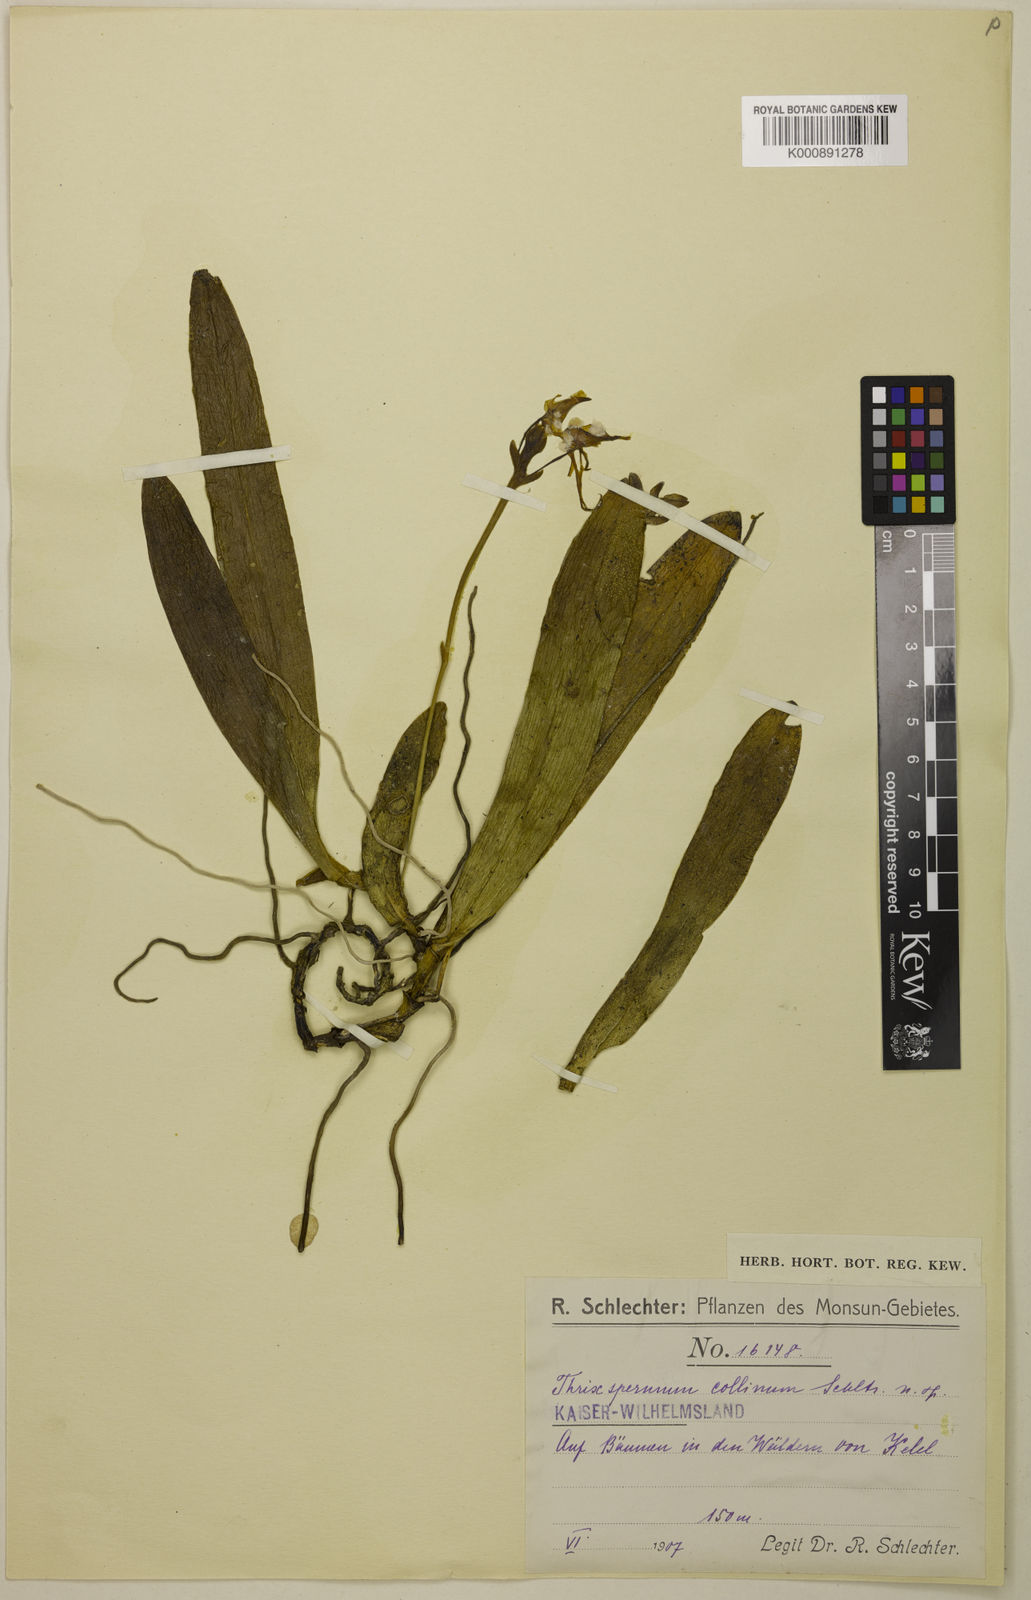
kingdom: Plantae
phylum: Tracheophyta
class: Liliopsida
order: Asparagales
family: Orchidaceae
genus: Thrixspermum
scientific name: Thrixspermum platystachys
